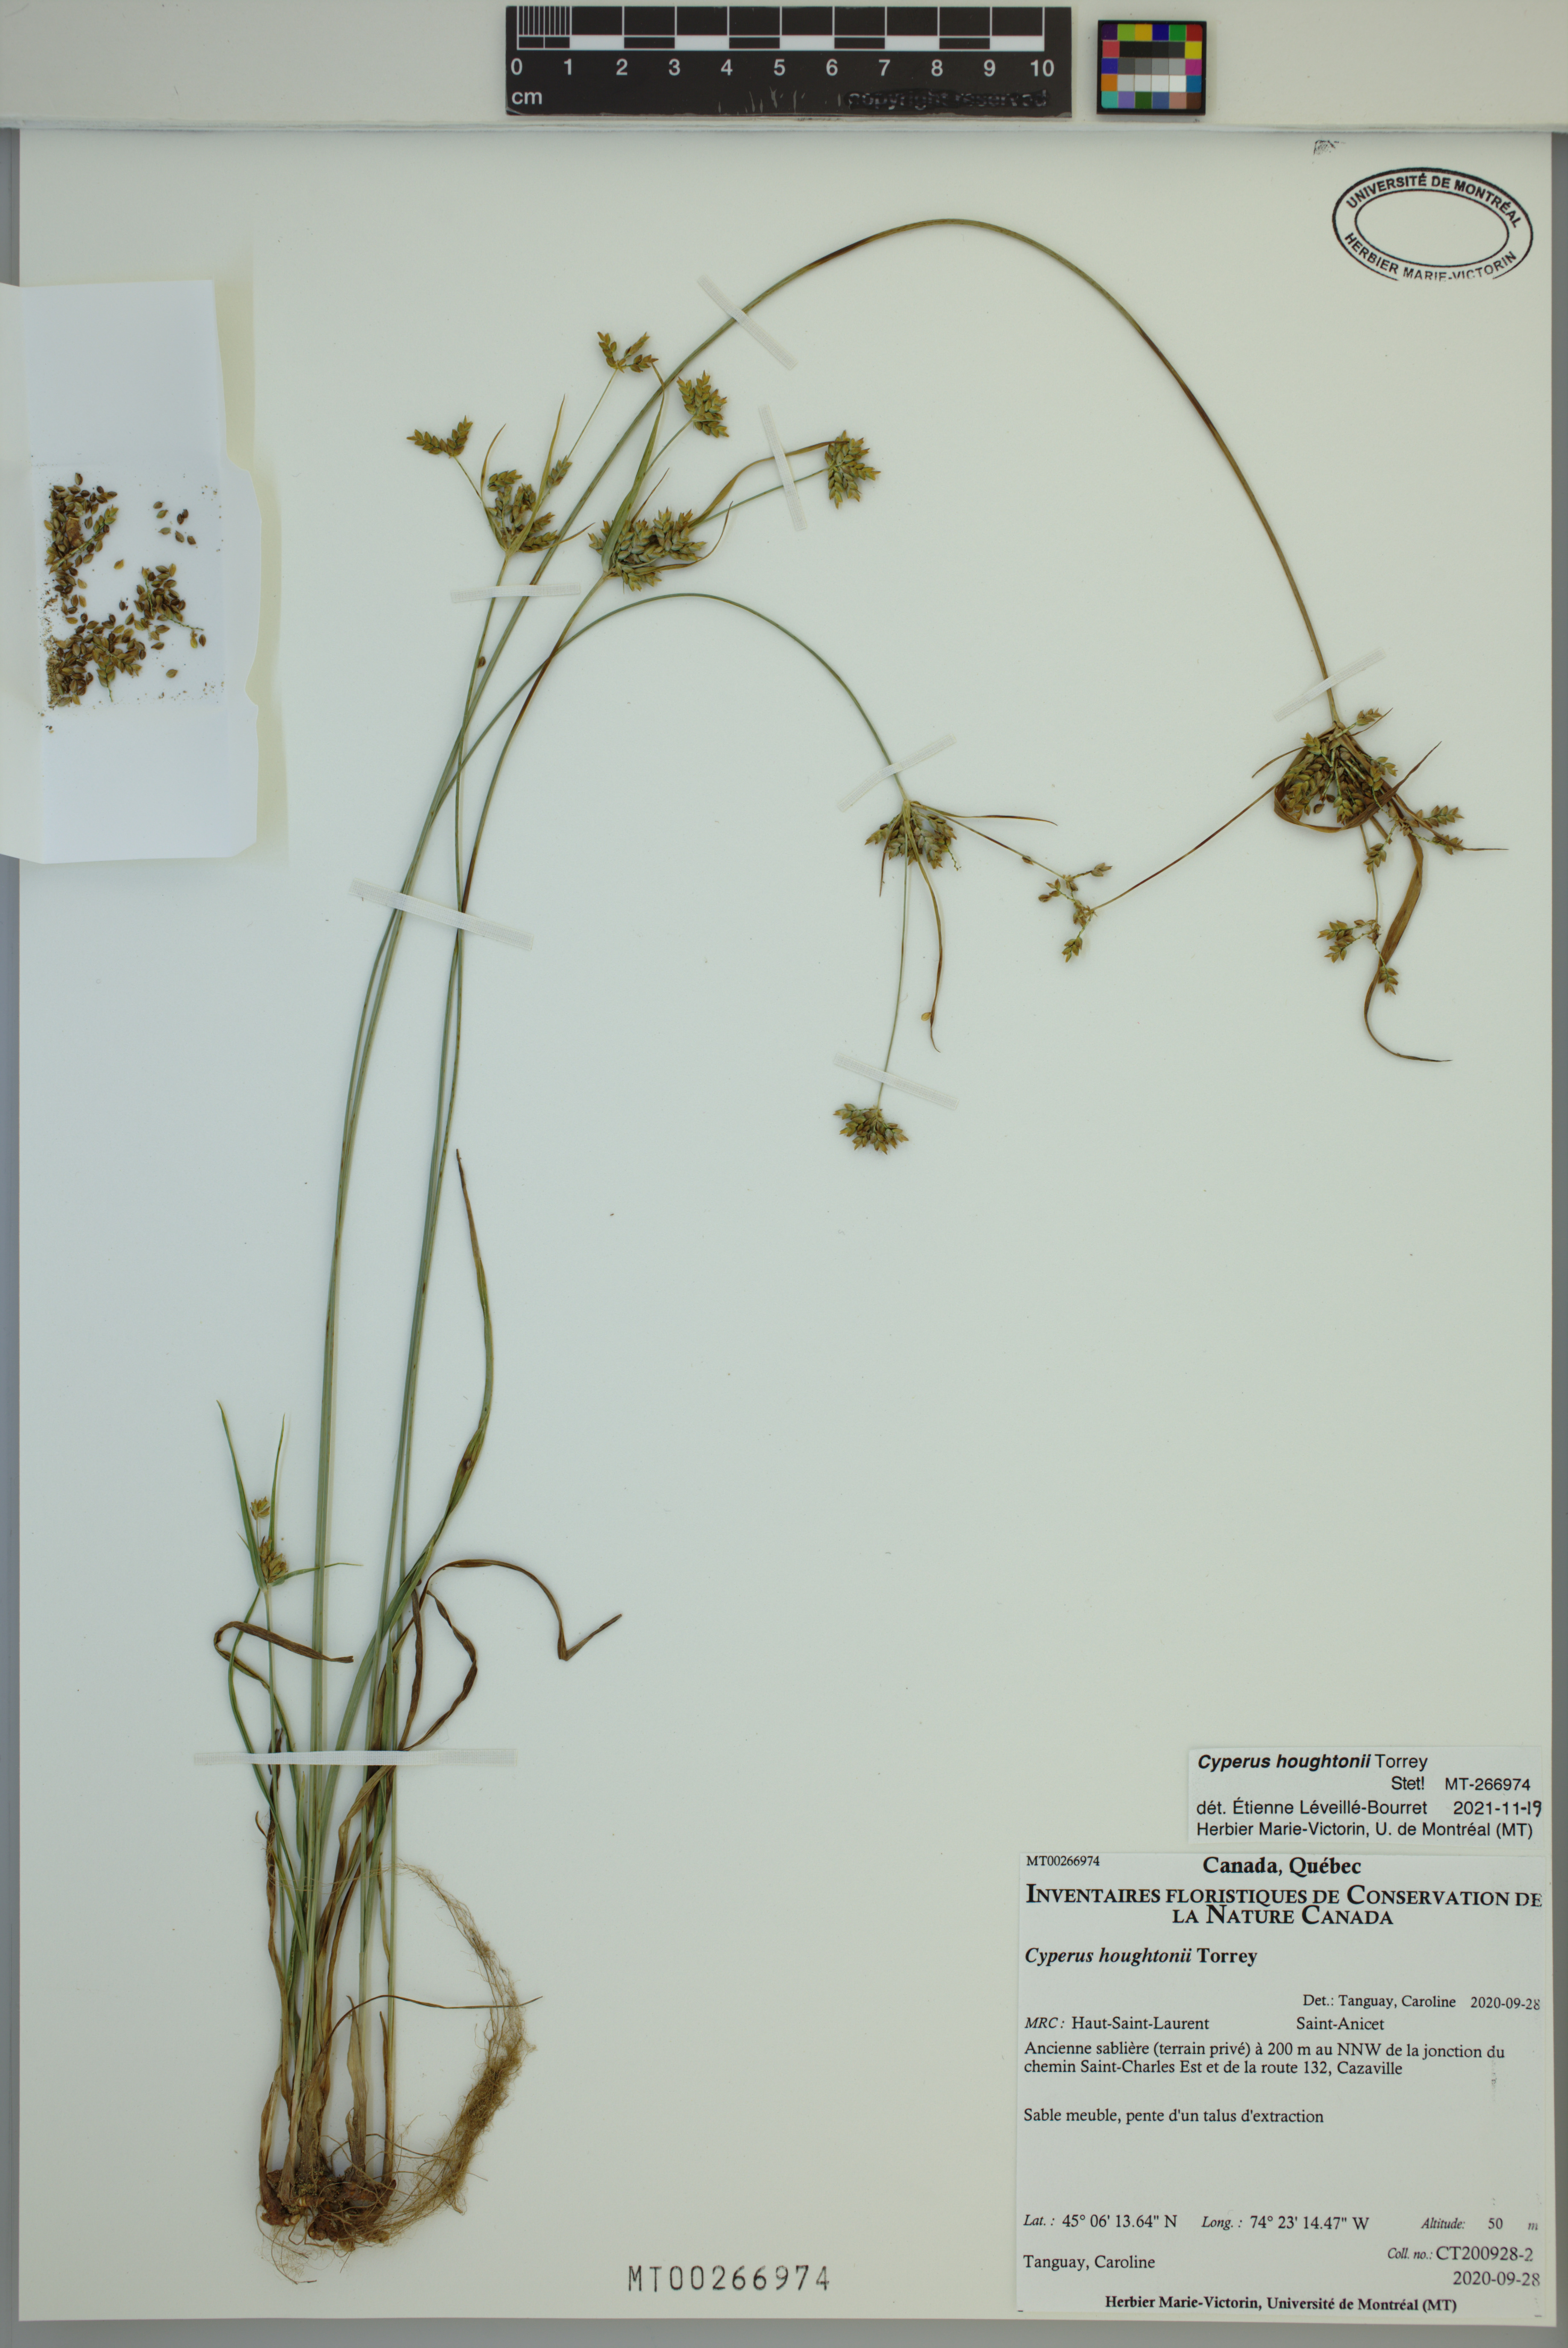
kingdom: Plantae
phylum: Tracheophyta
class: Liliopsida
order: Poales
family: Cyperaceae
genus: Cyperus
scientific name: Cyperus houghtonii
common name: Houghton's cyperus
